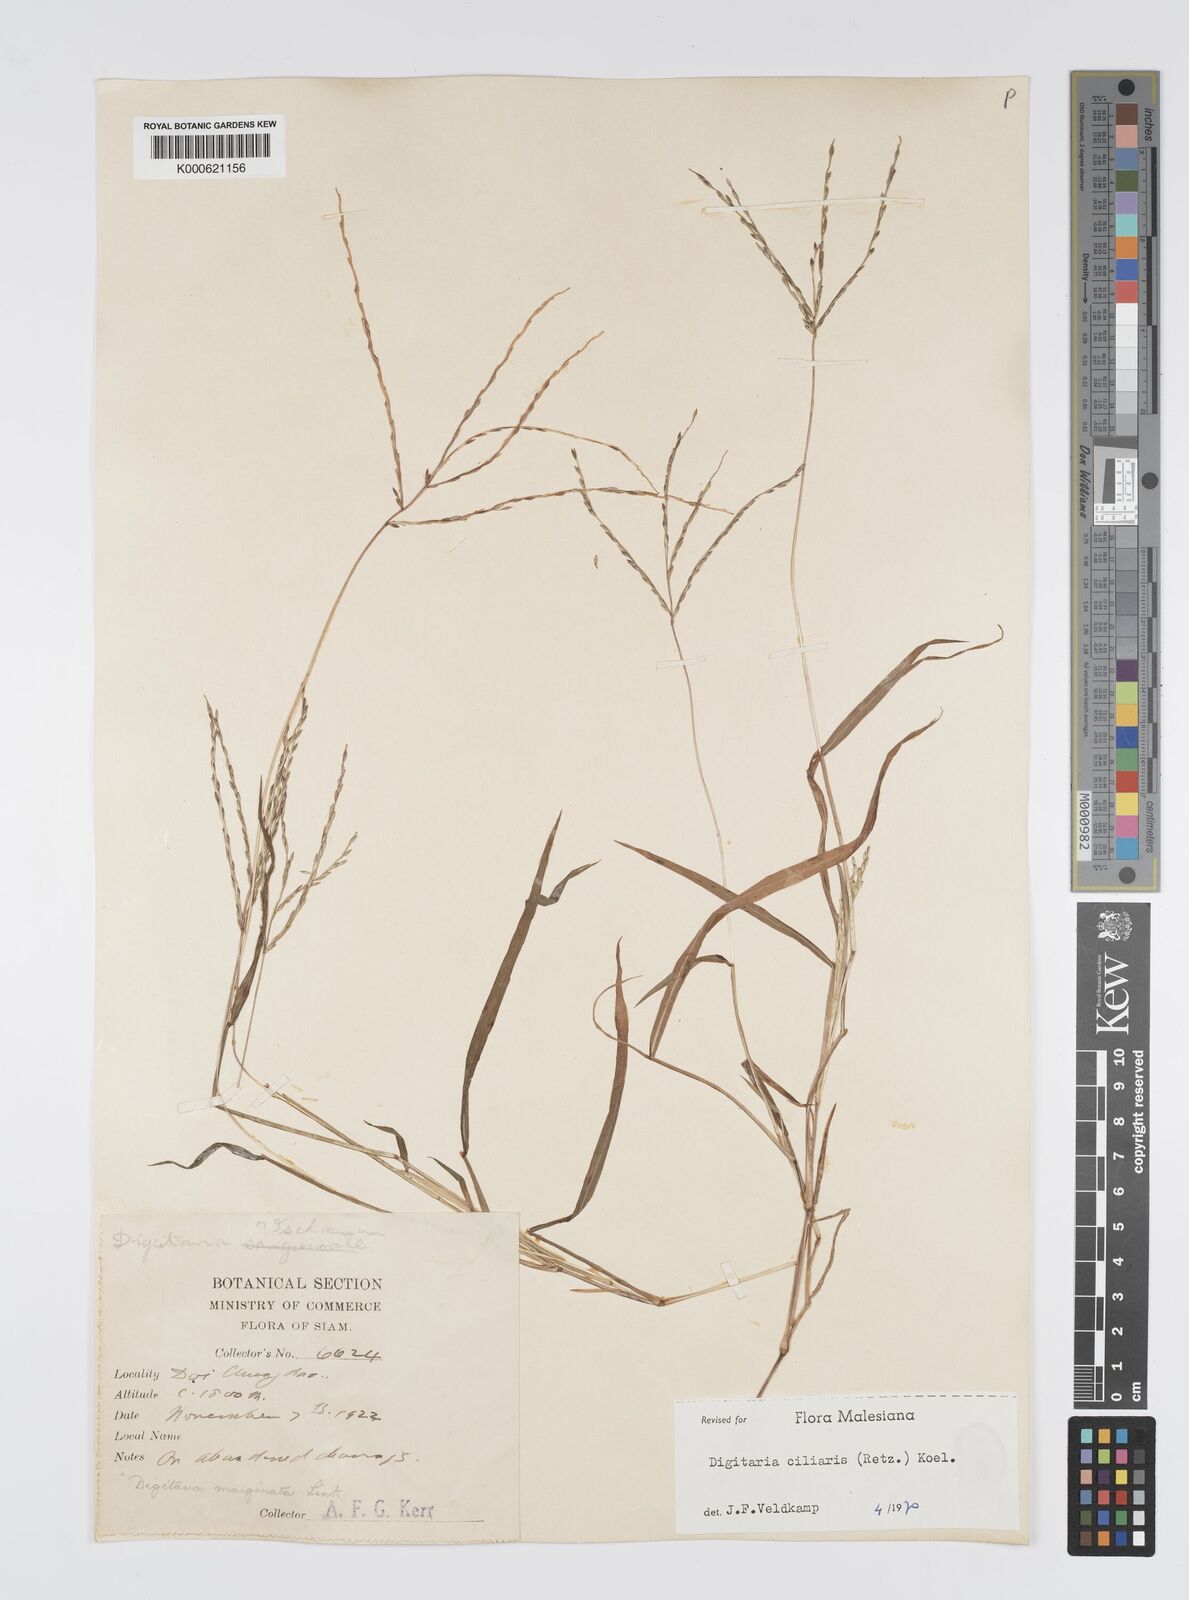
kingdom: Plantae
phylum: Tracheophyta
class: Liliopsida
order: Poales
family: Poaceae
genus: Digitaria
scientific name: Digitaria ciliaris
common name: Tropical finger-grass
